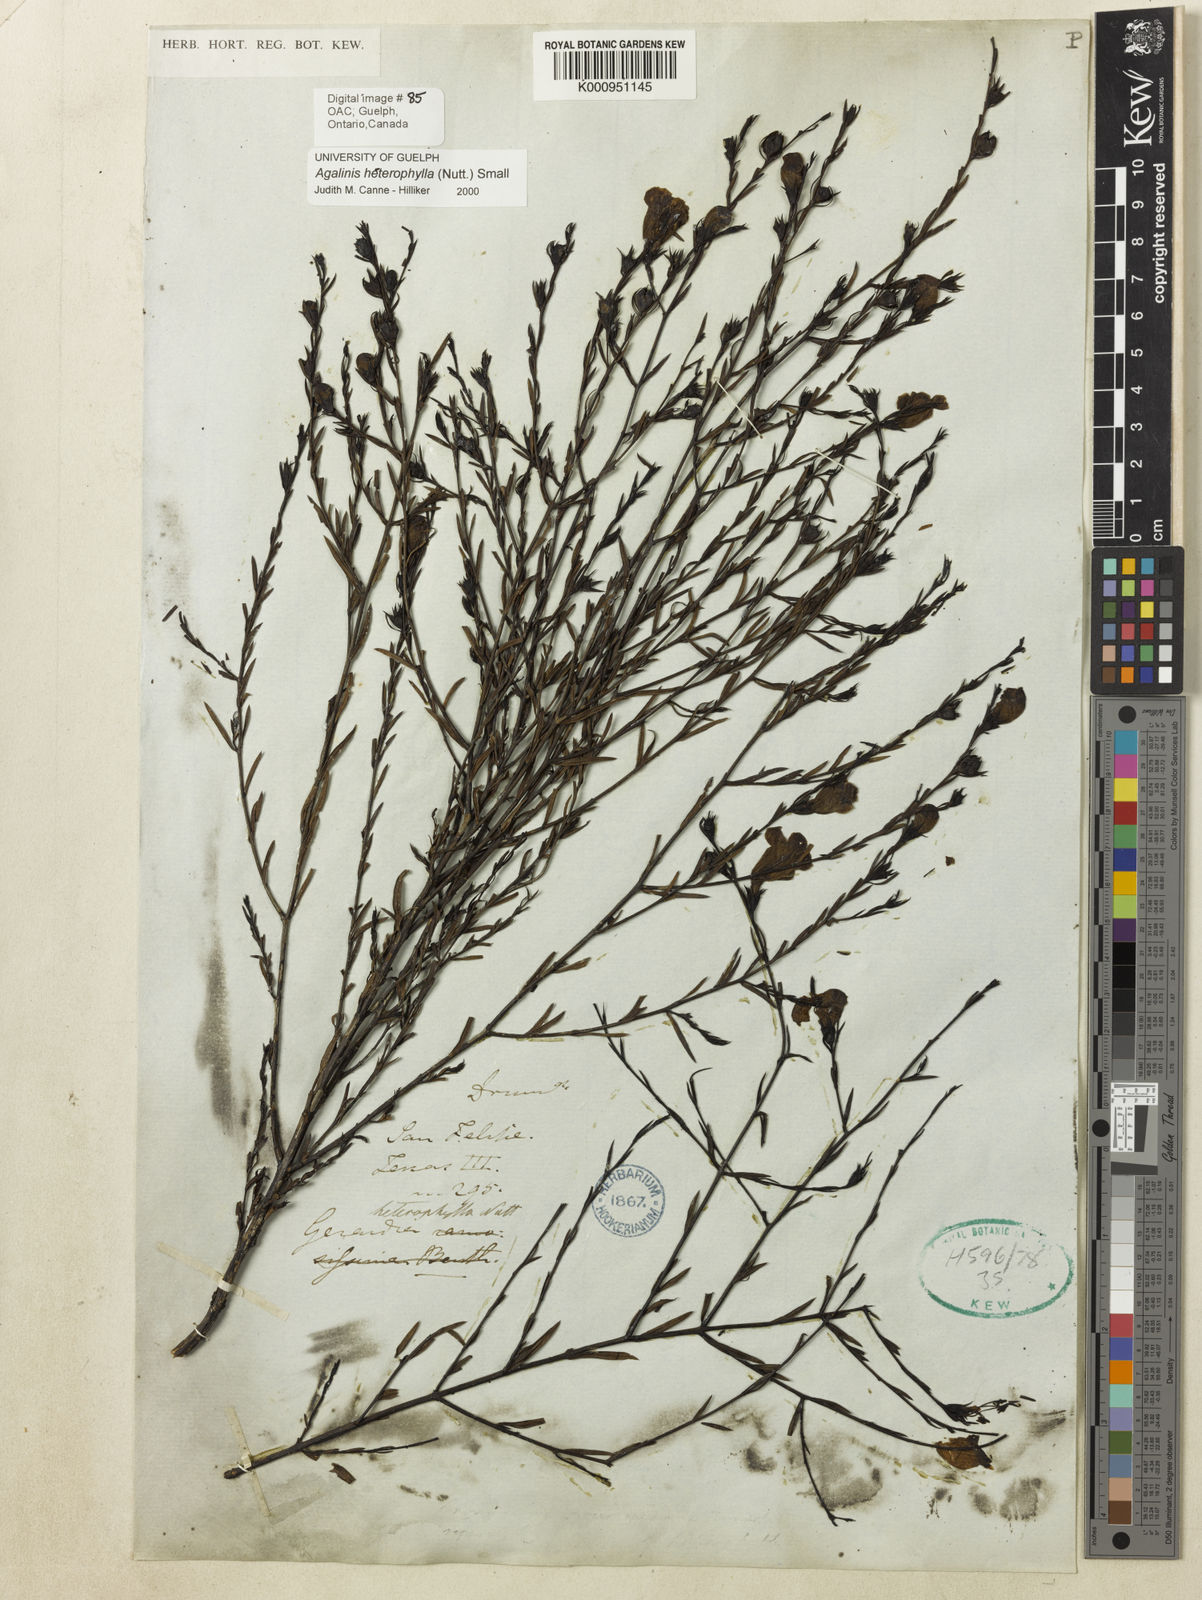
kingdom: Plantae
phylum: Tracheophyta
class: Magnoliopsida
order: Lamiales
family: Orobanchaceae
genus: Agalinis
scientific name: Agalinis heterophylla
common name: Prairie agalinis
